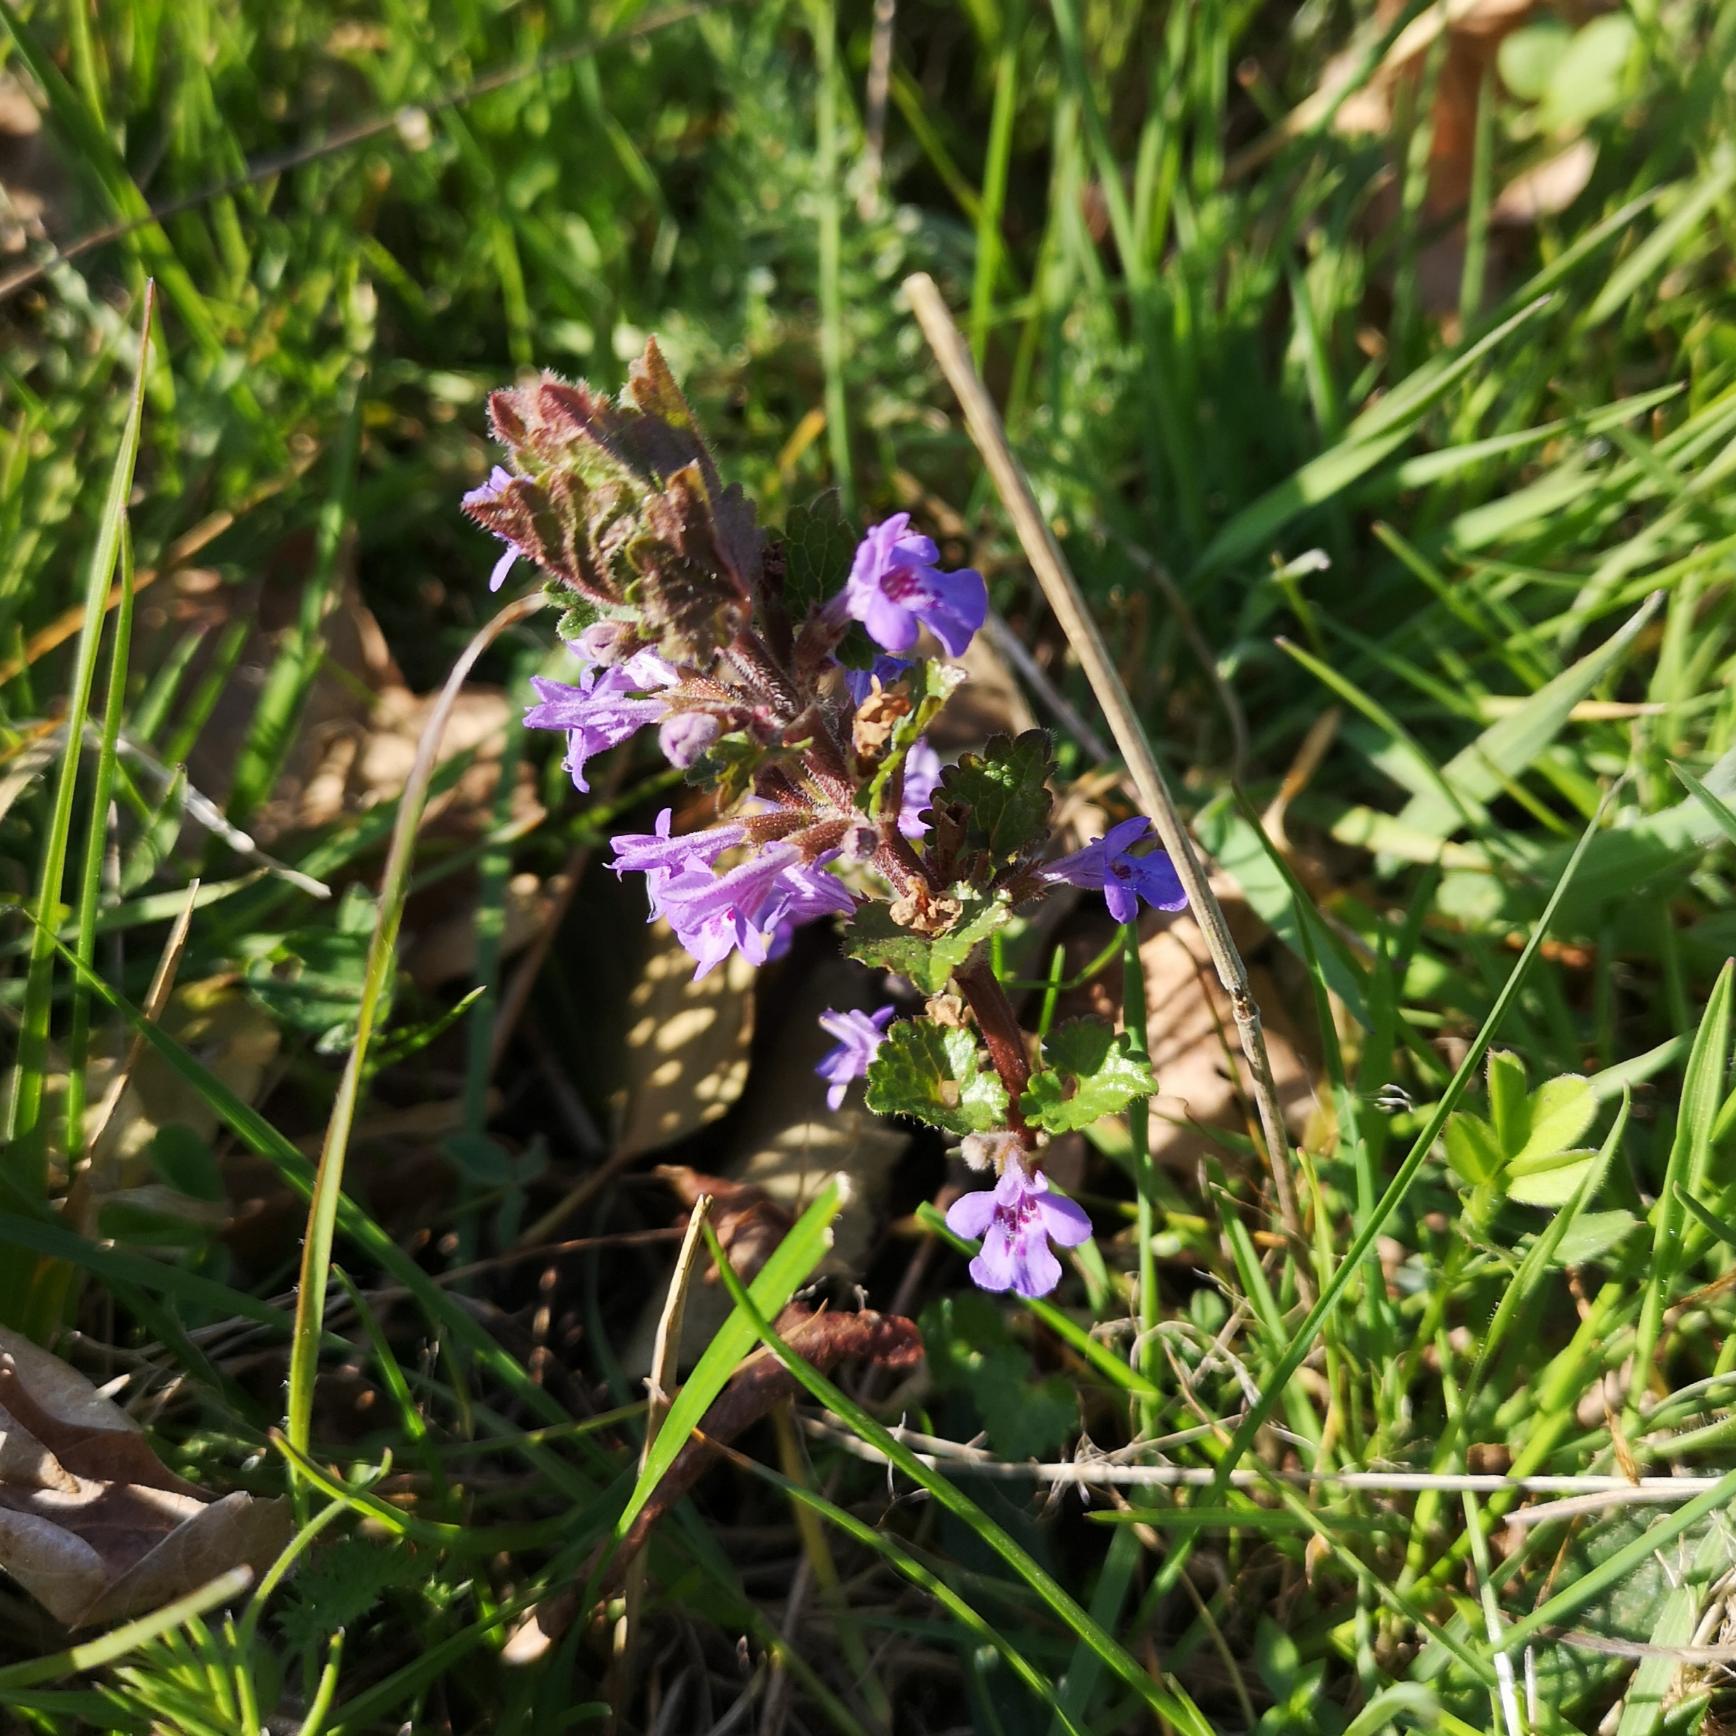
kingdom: Plantae
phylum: Tracheophyta
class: Magnoliopsida
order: Lamiales
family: Lamiaceae
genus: Glechoma
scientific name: Glechoma hederacea
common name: Korsknap
